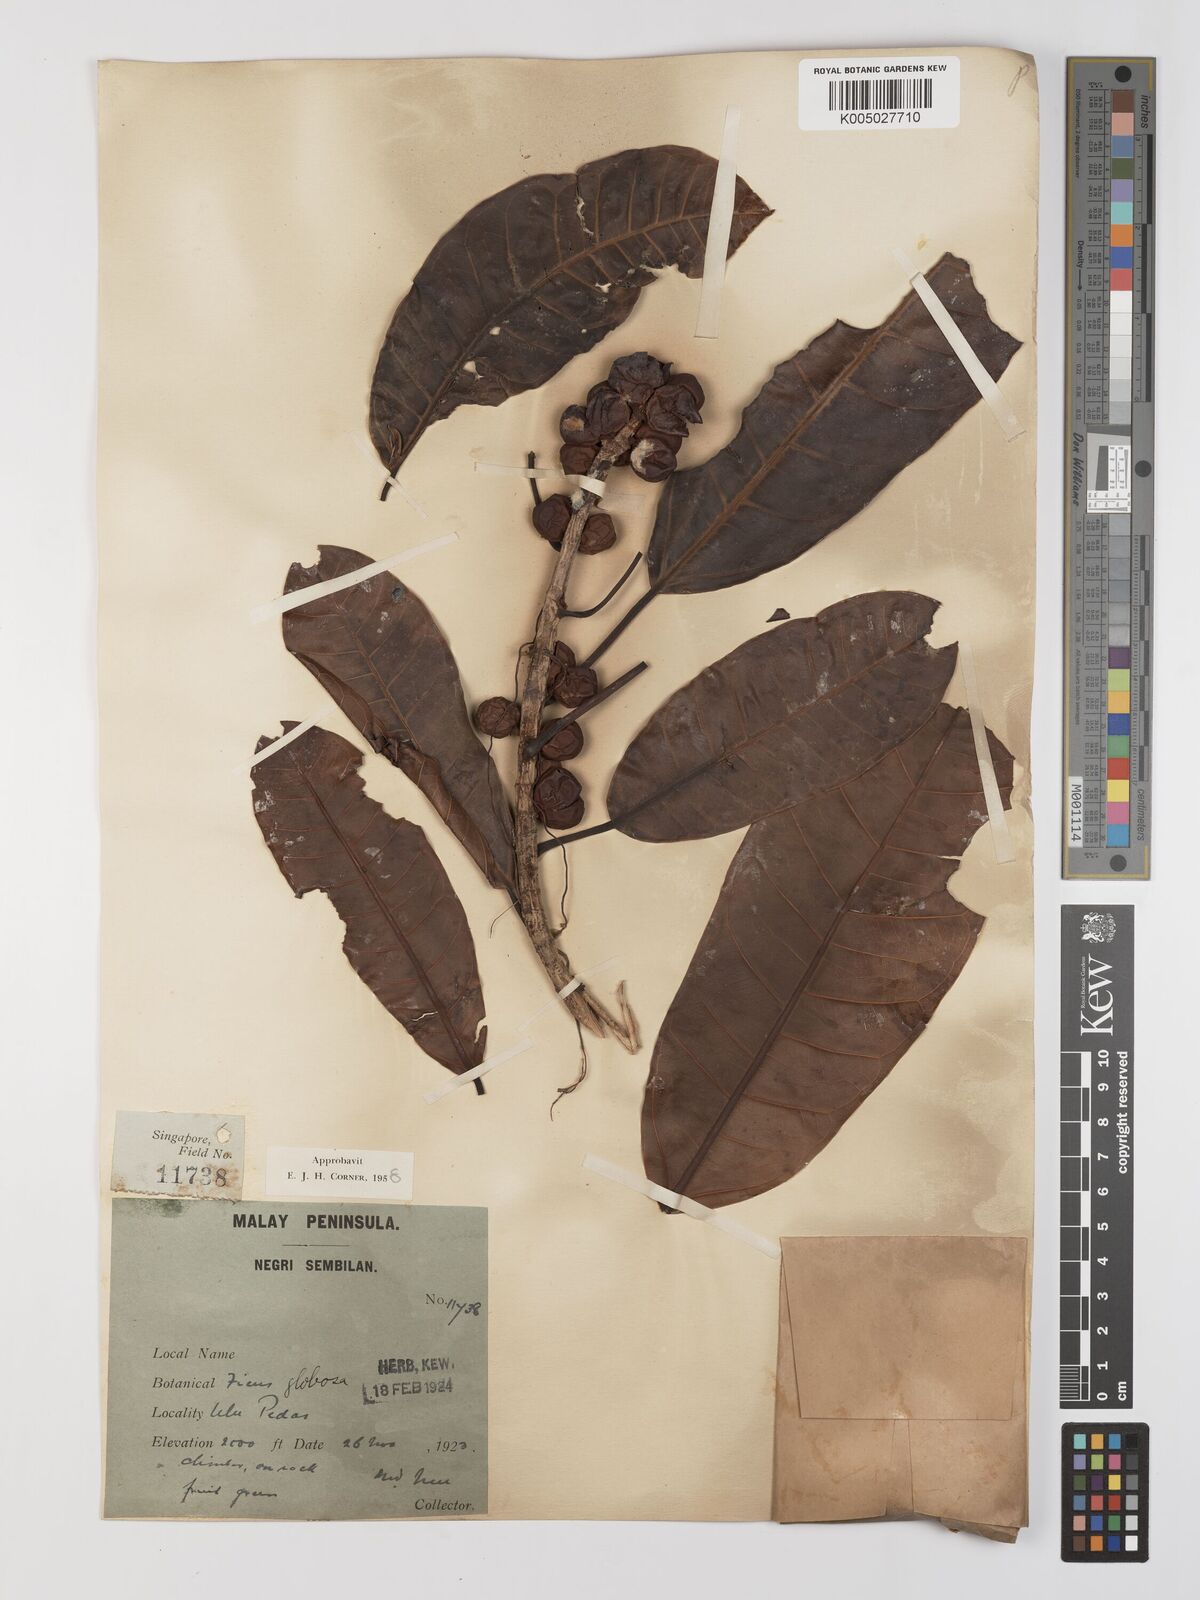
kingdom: Plantae
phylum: Tracheophyta
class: Magnoliopsida
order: Rosales
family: Moraceae
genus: Ficus
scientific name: Ficus
